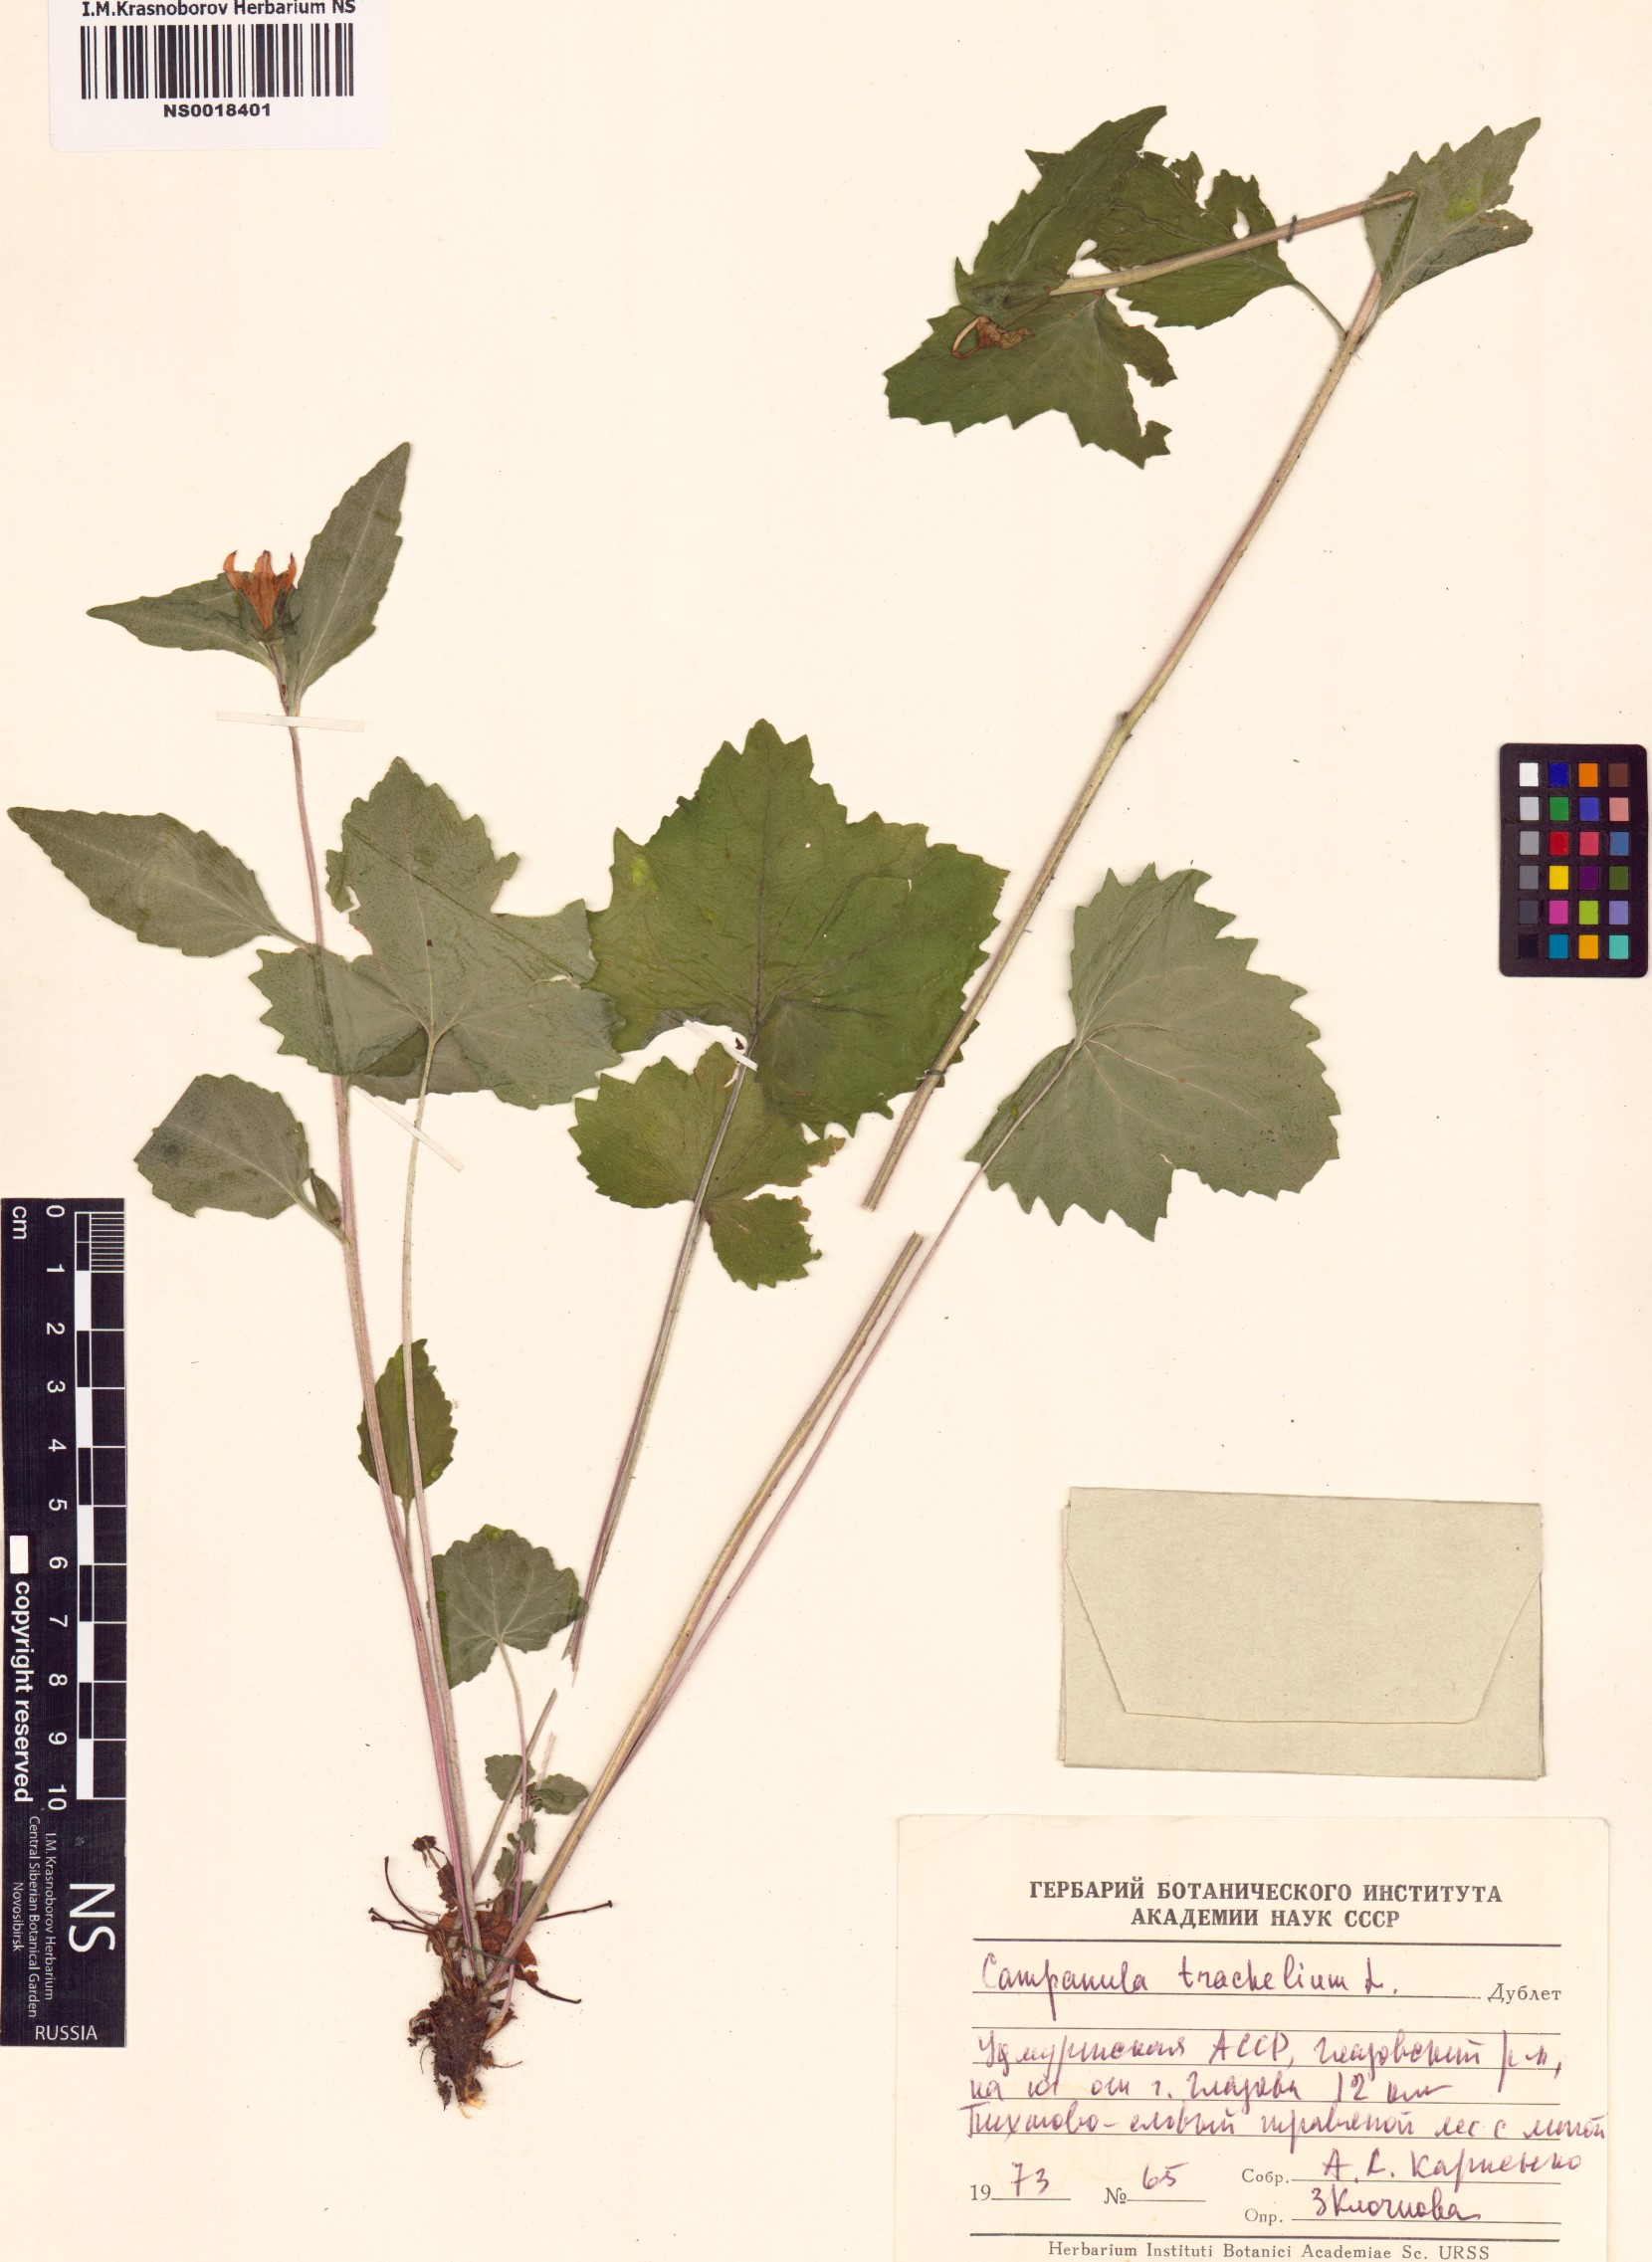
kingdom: Plantae
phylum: Tracheophyta
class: Magnoliopsida
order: Asterales
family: Campanulaceae
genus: Campanula
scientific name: Campanula trachelium
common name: Nettle-leaved bellflower
